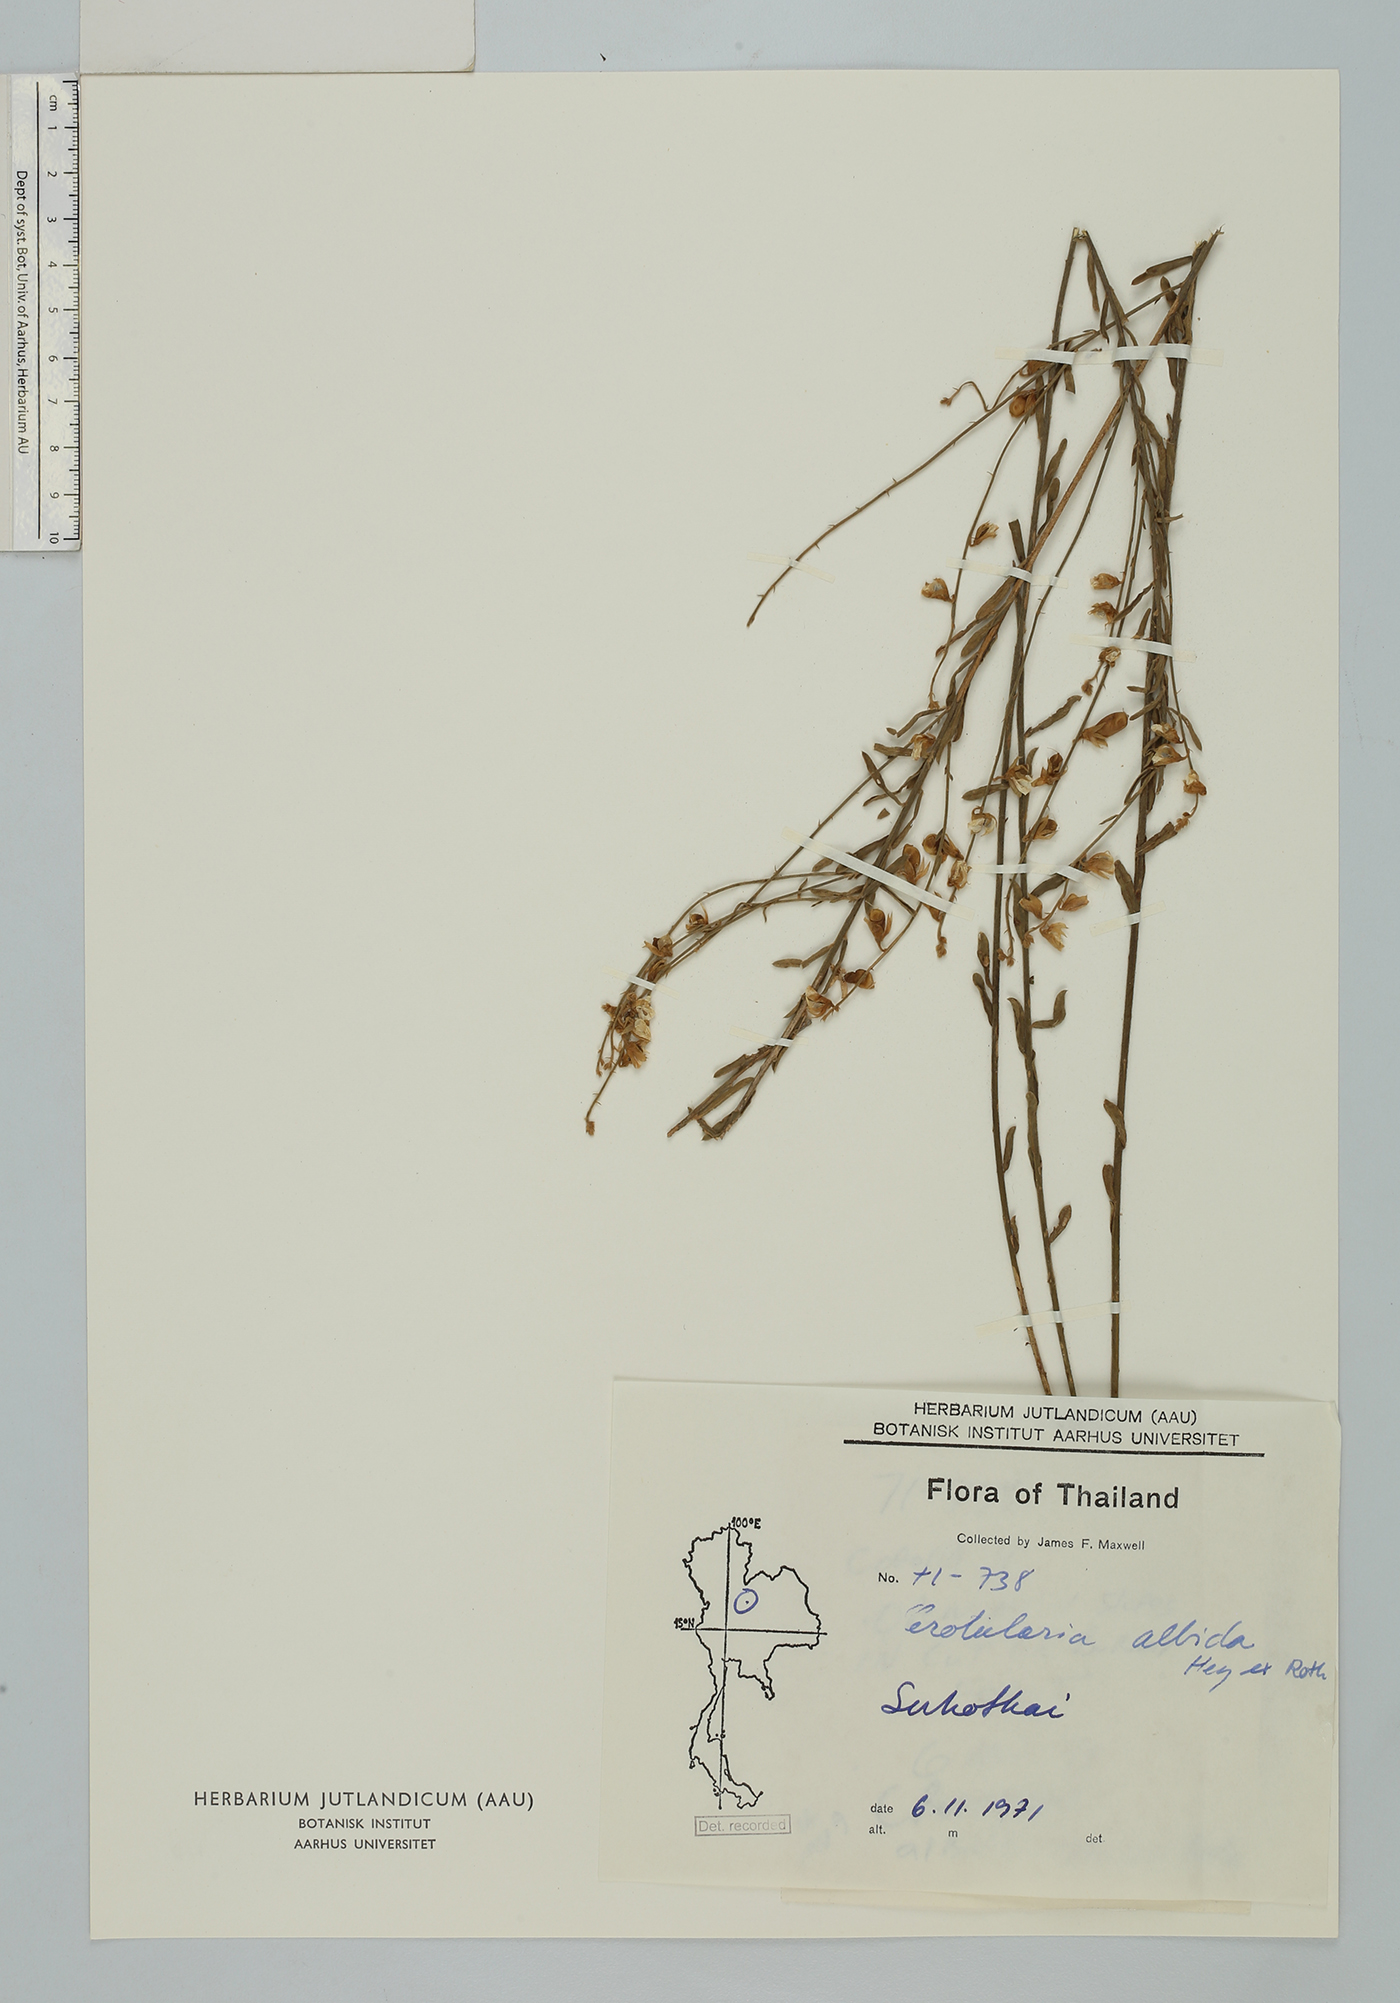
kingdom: Plantae
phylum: Tracheophyta
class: Magnoliopsida
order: Fabales
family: Fabaceae
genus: Crotalaria
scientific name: Crotalaria albida
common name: Taiwan crotalaria
